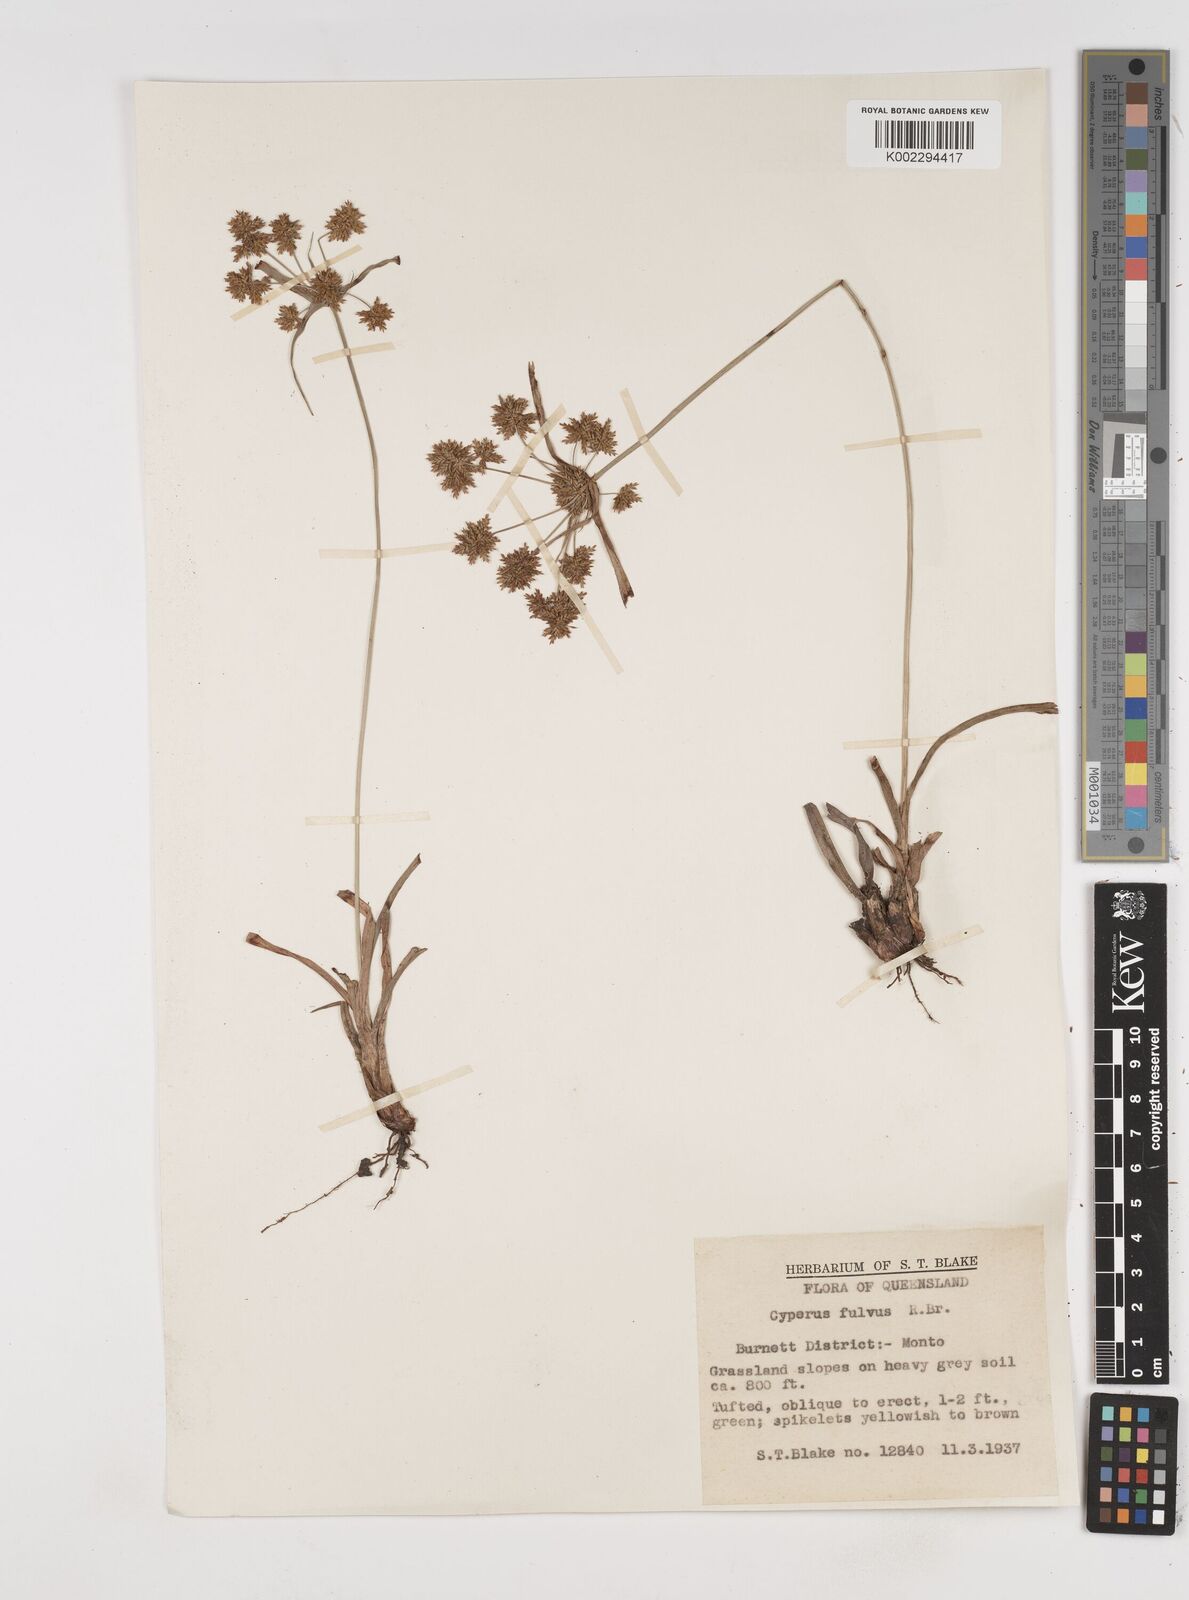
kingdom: Plantae
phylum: Tracheophyta
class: Liliopsida
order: Poales
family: Cyperaceae
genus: Cyperus
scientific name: Cyperus fulvus
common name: Sticky sedge
